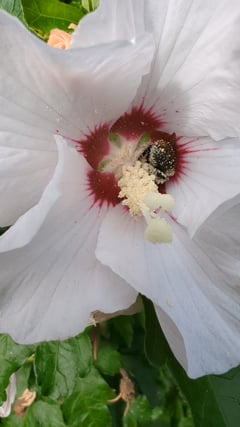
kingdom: Animalia
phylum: Arthropoda
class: Insecta
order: Hymenoptera
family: Apidae
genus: Bombus
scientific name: Bombus pascuorum
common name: Common carder bee
